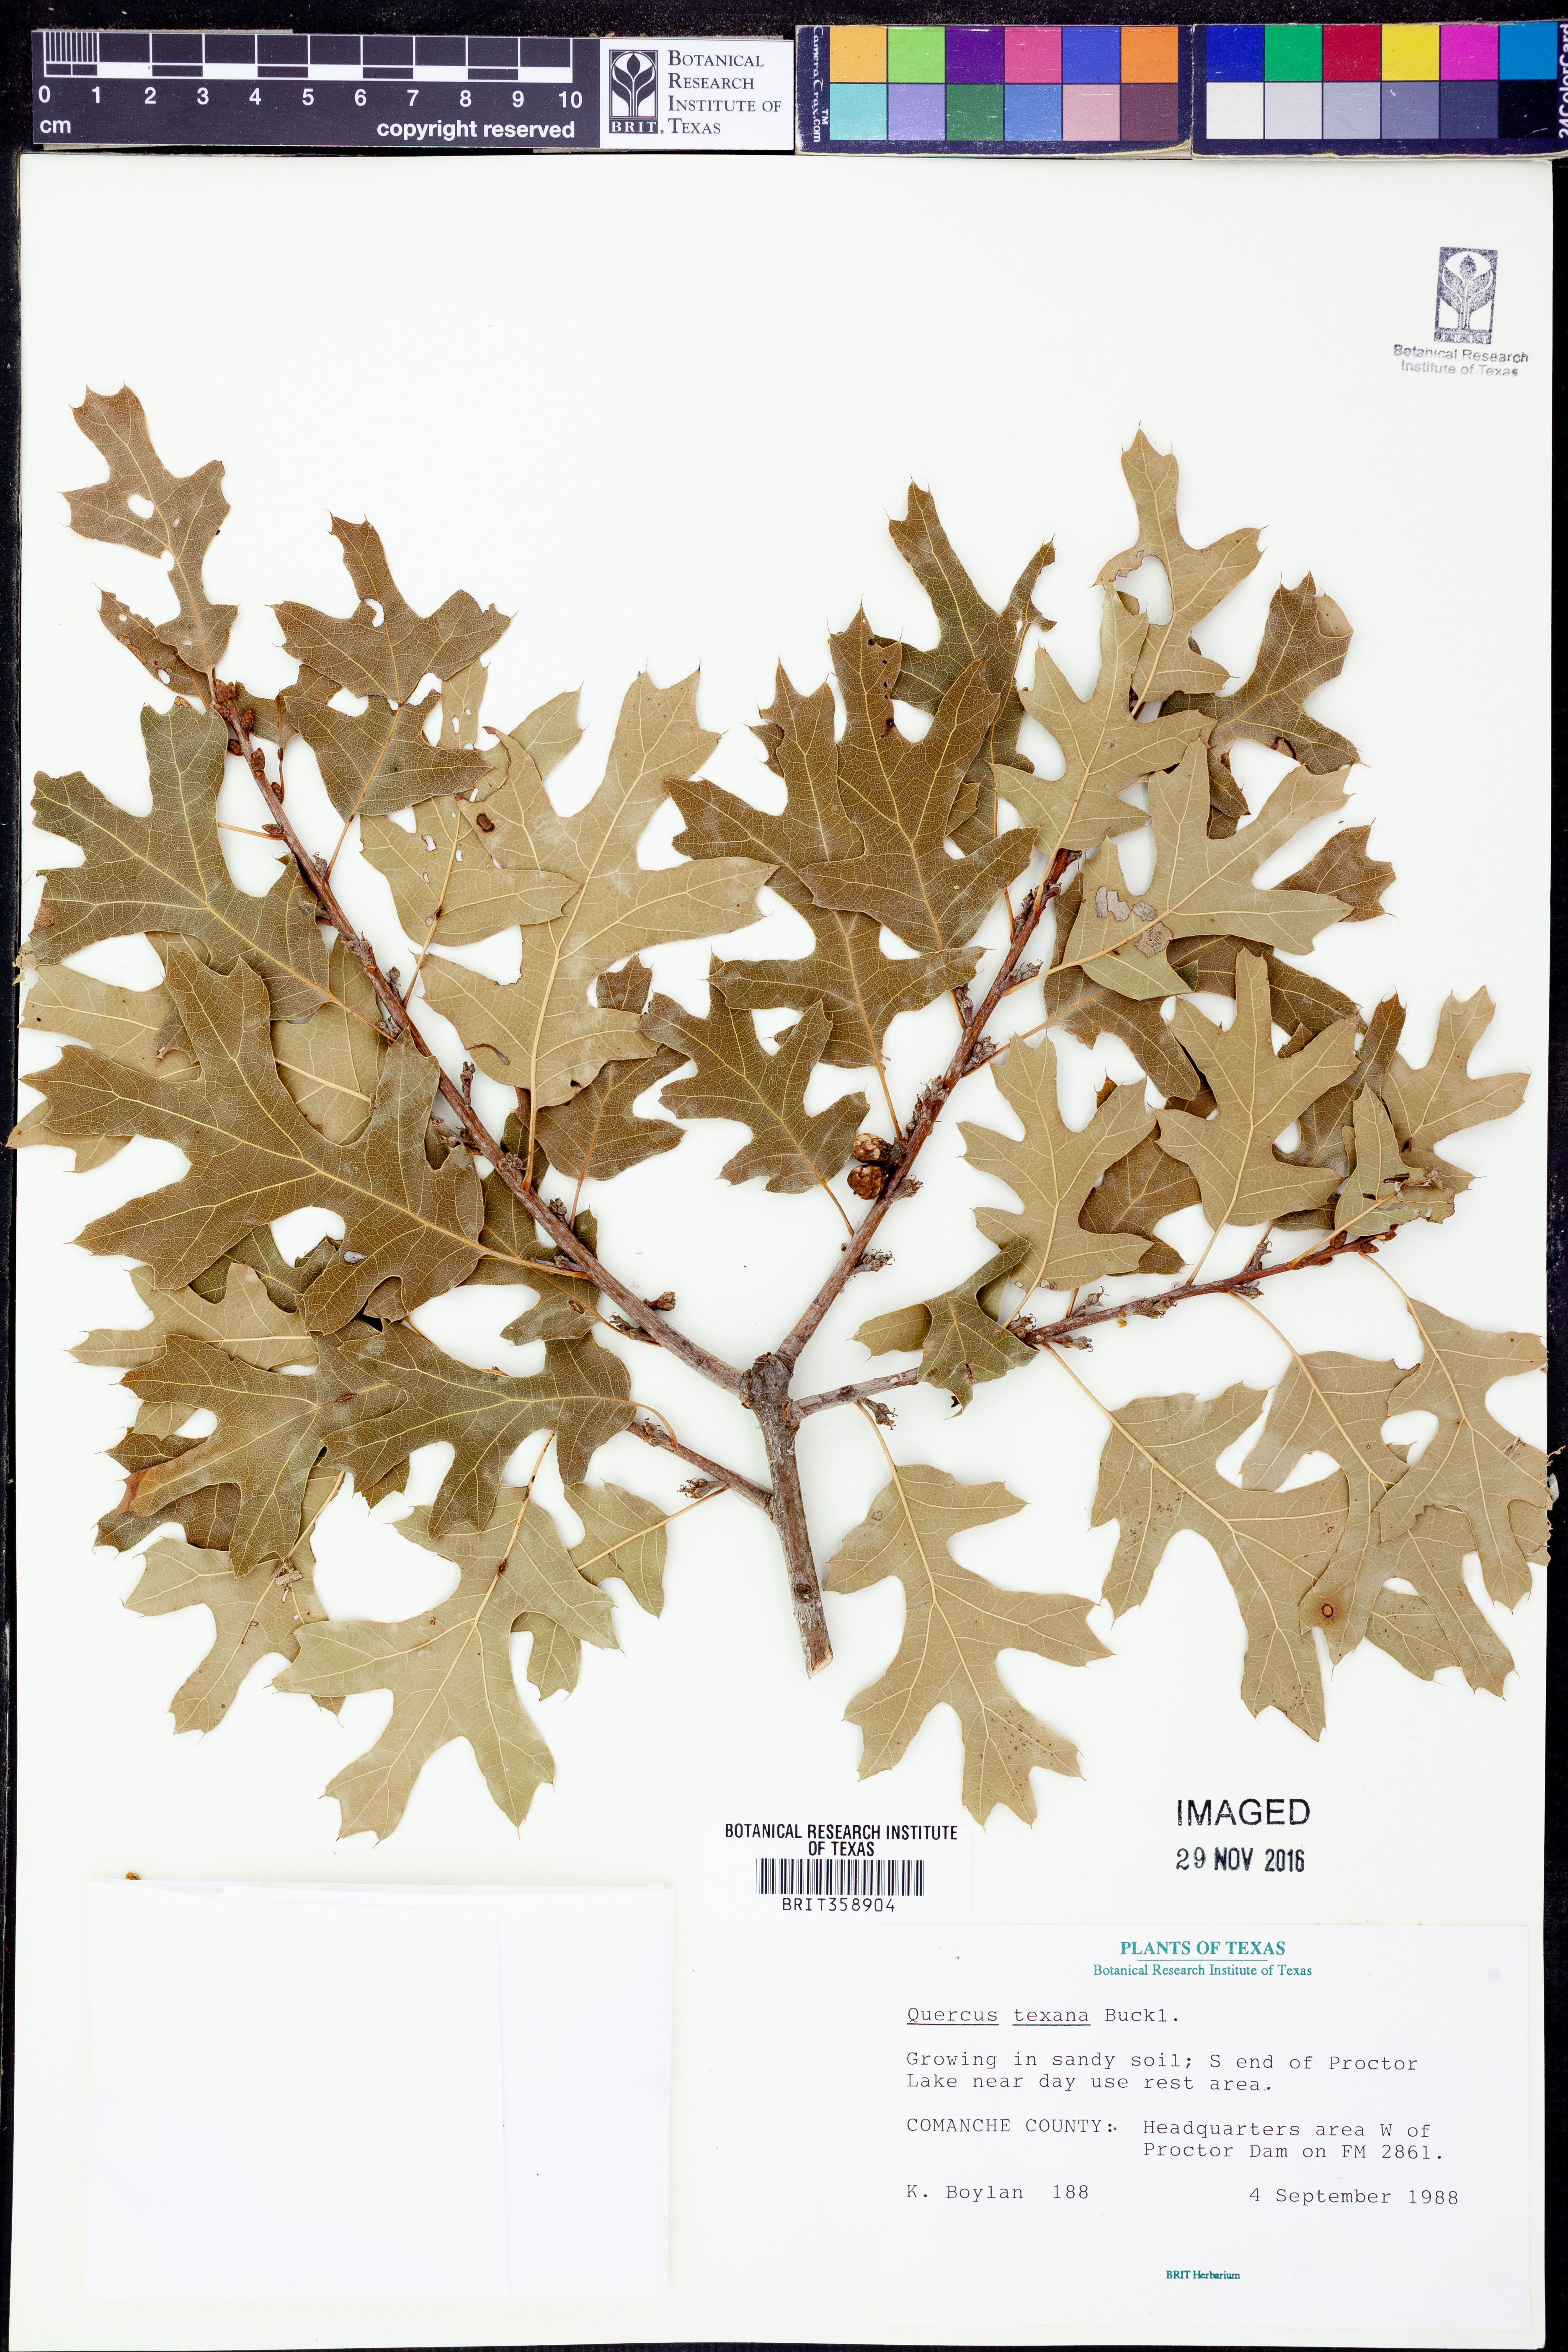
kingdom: Plantae
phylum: Tracheophyta
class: Magnoliopsida
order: Fagales
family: Fagaceae
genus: Quercus
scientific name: Quercus texana
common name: Nuttall oak
